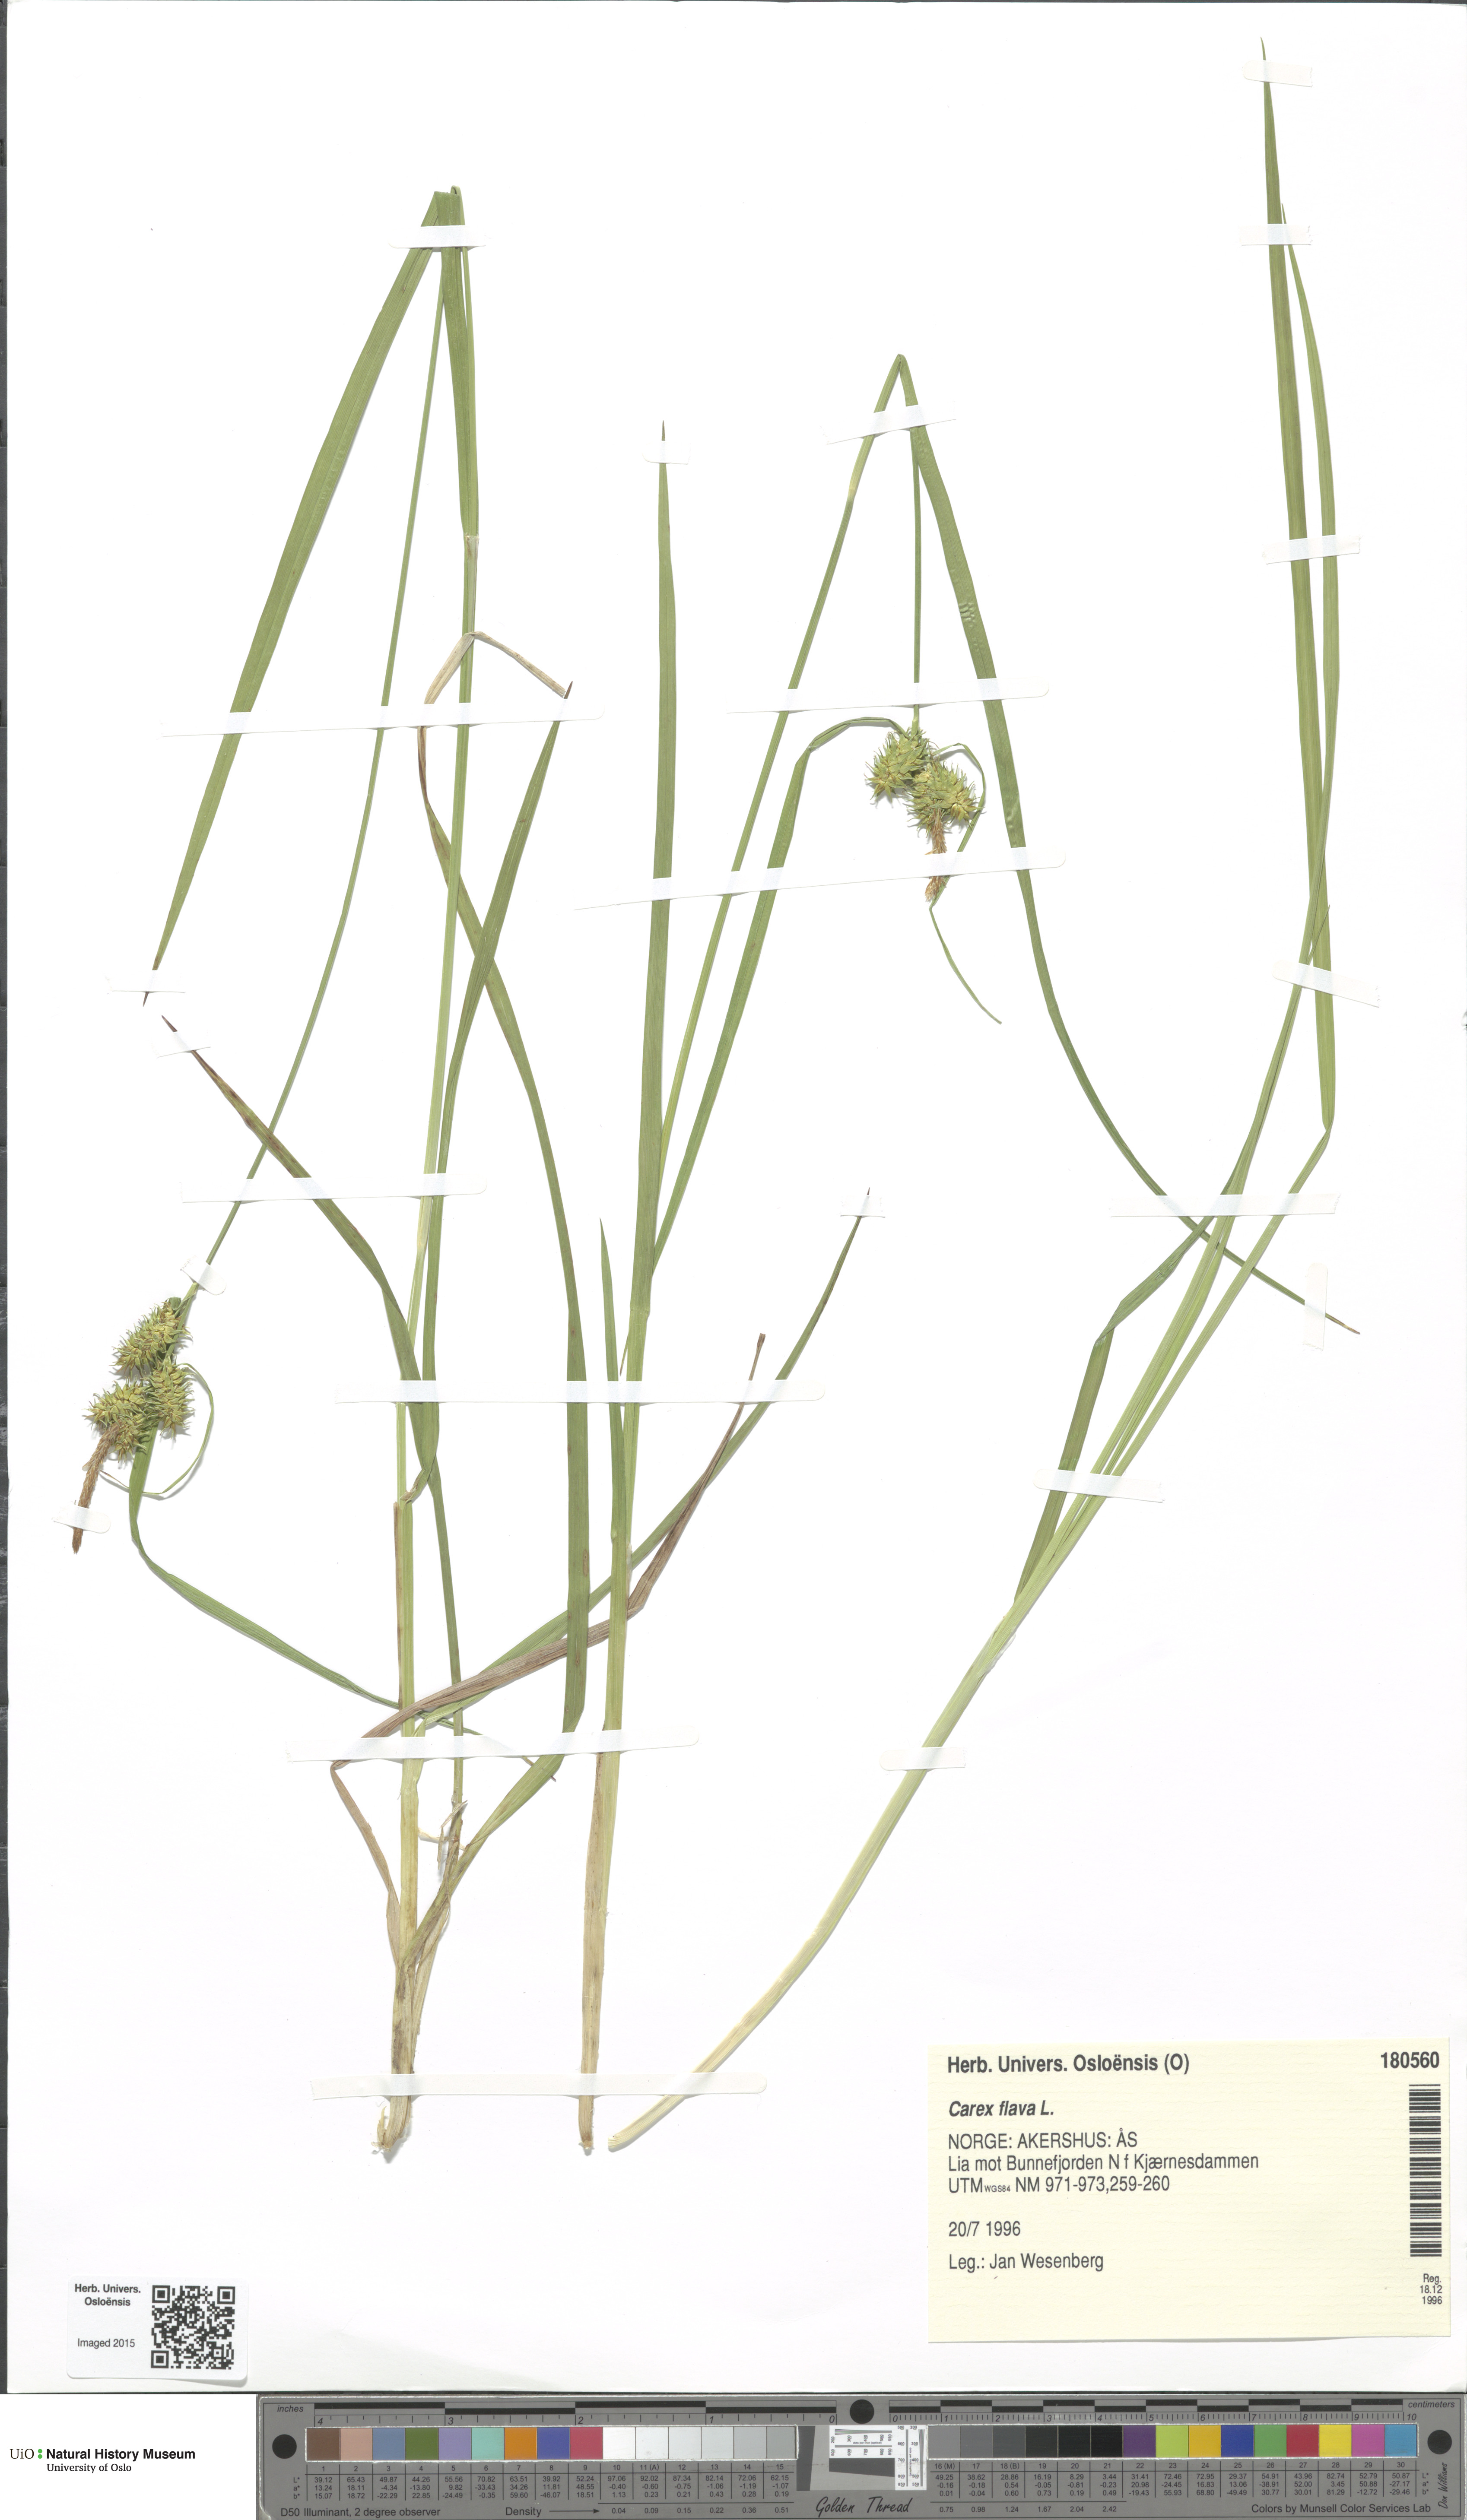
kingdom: Plantae
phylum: Tracheophyta
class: Liliopsida
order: Poales
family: Cyperaceae
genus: Carex
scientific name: Carex flava
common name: Large yellow-sedge
